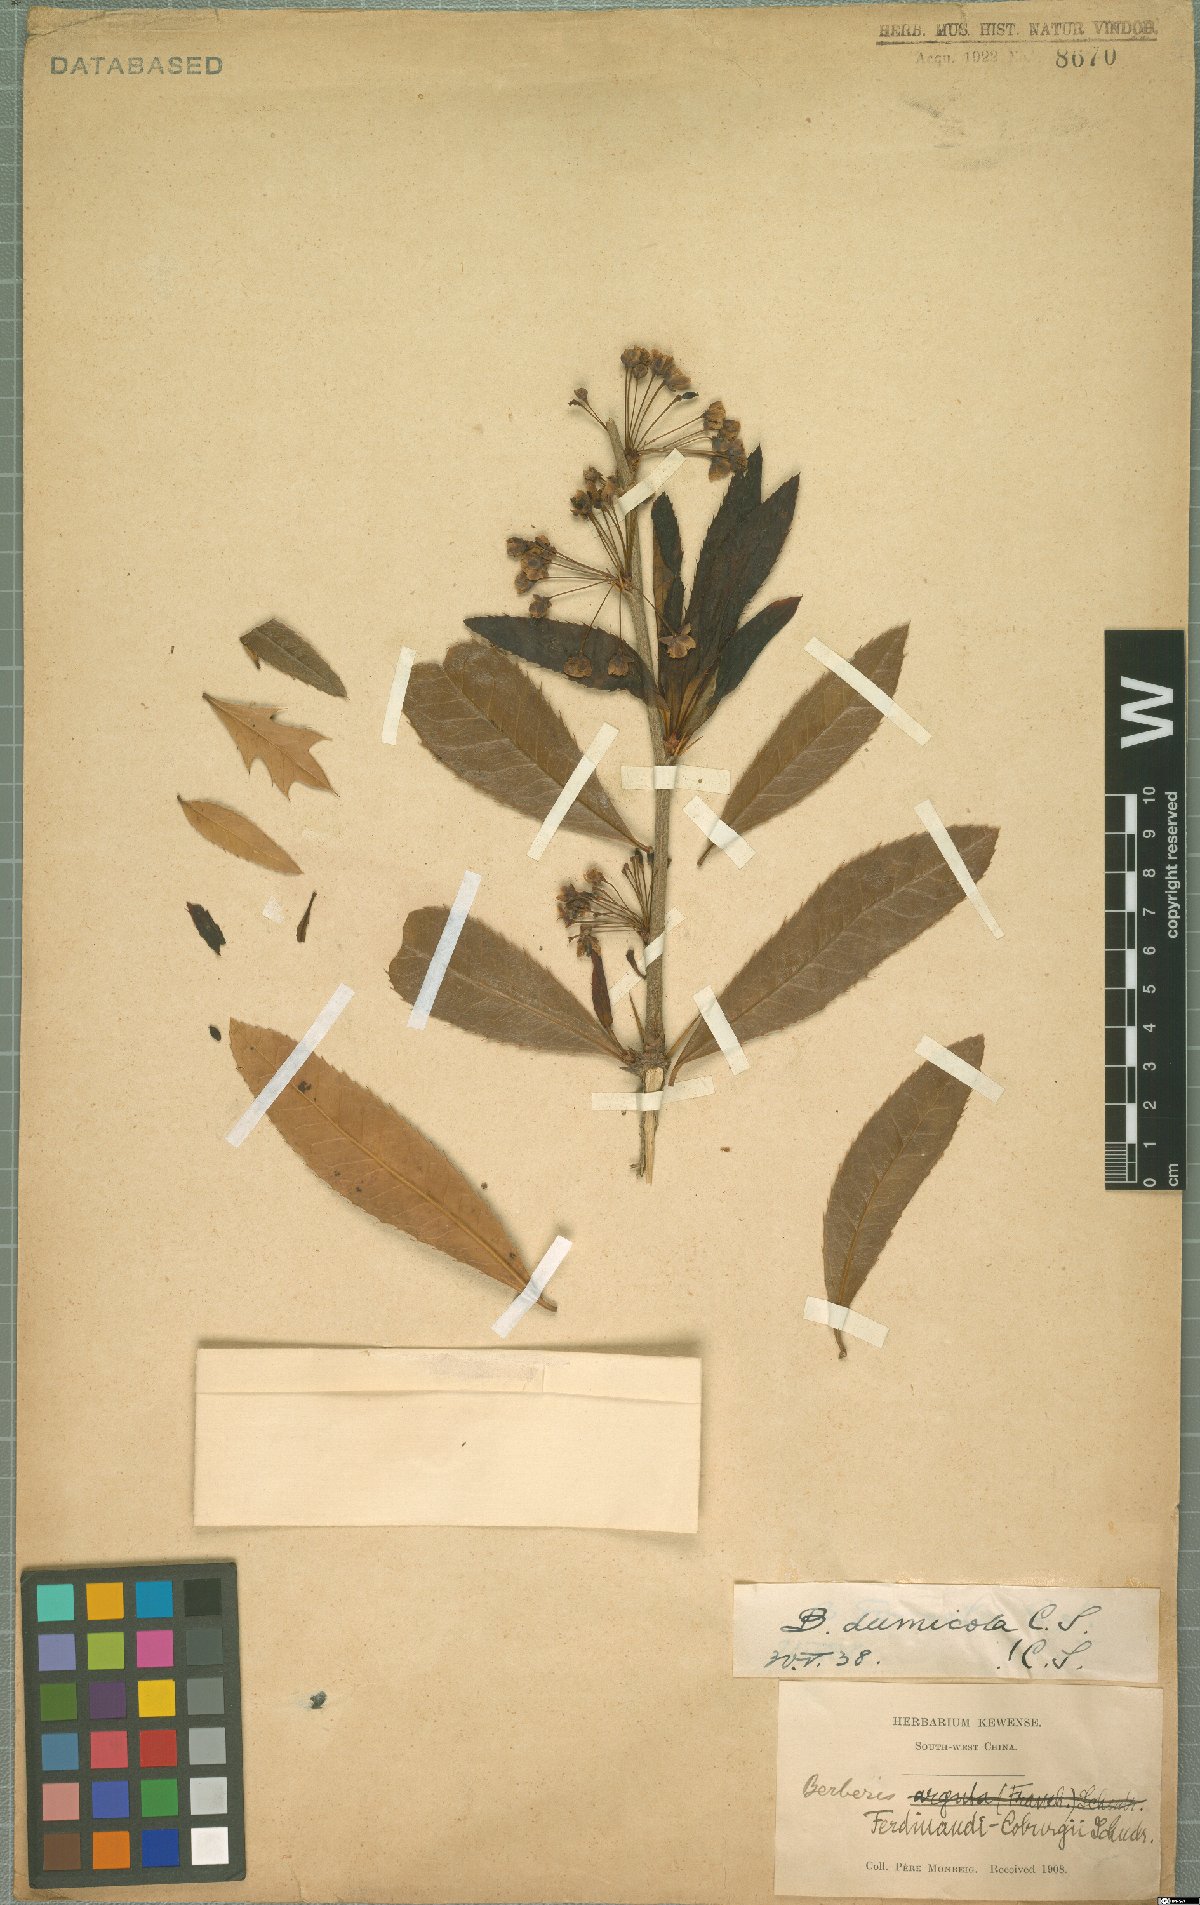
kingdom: Plantae
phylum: Tracheophyta
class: Magnoliopsida
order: Ranunculales
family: Berberidaceae
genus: Berberis
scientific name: Berberis dumicola
